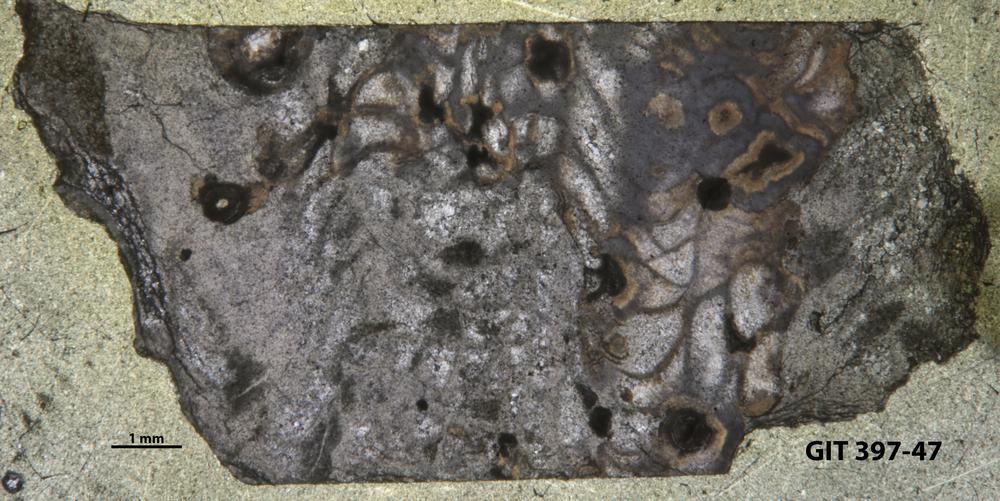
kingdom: Animalia
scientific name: Animalia
